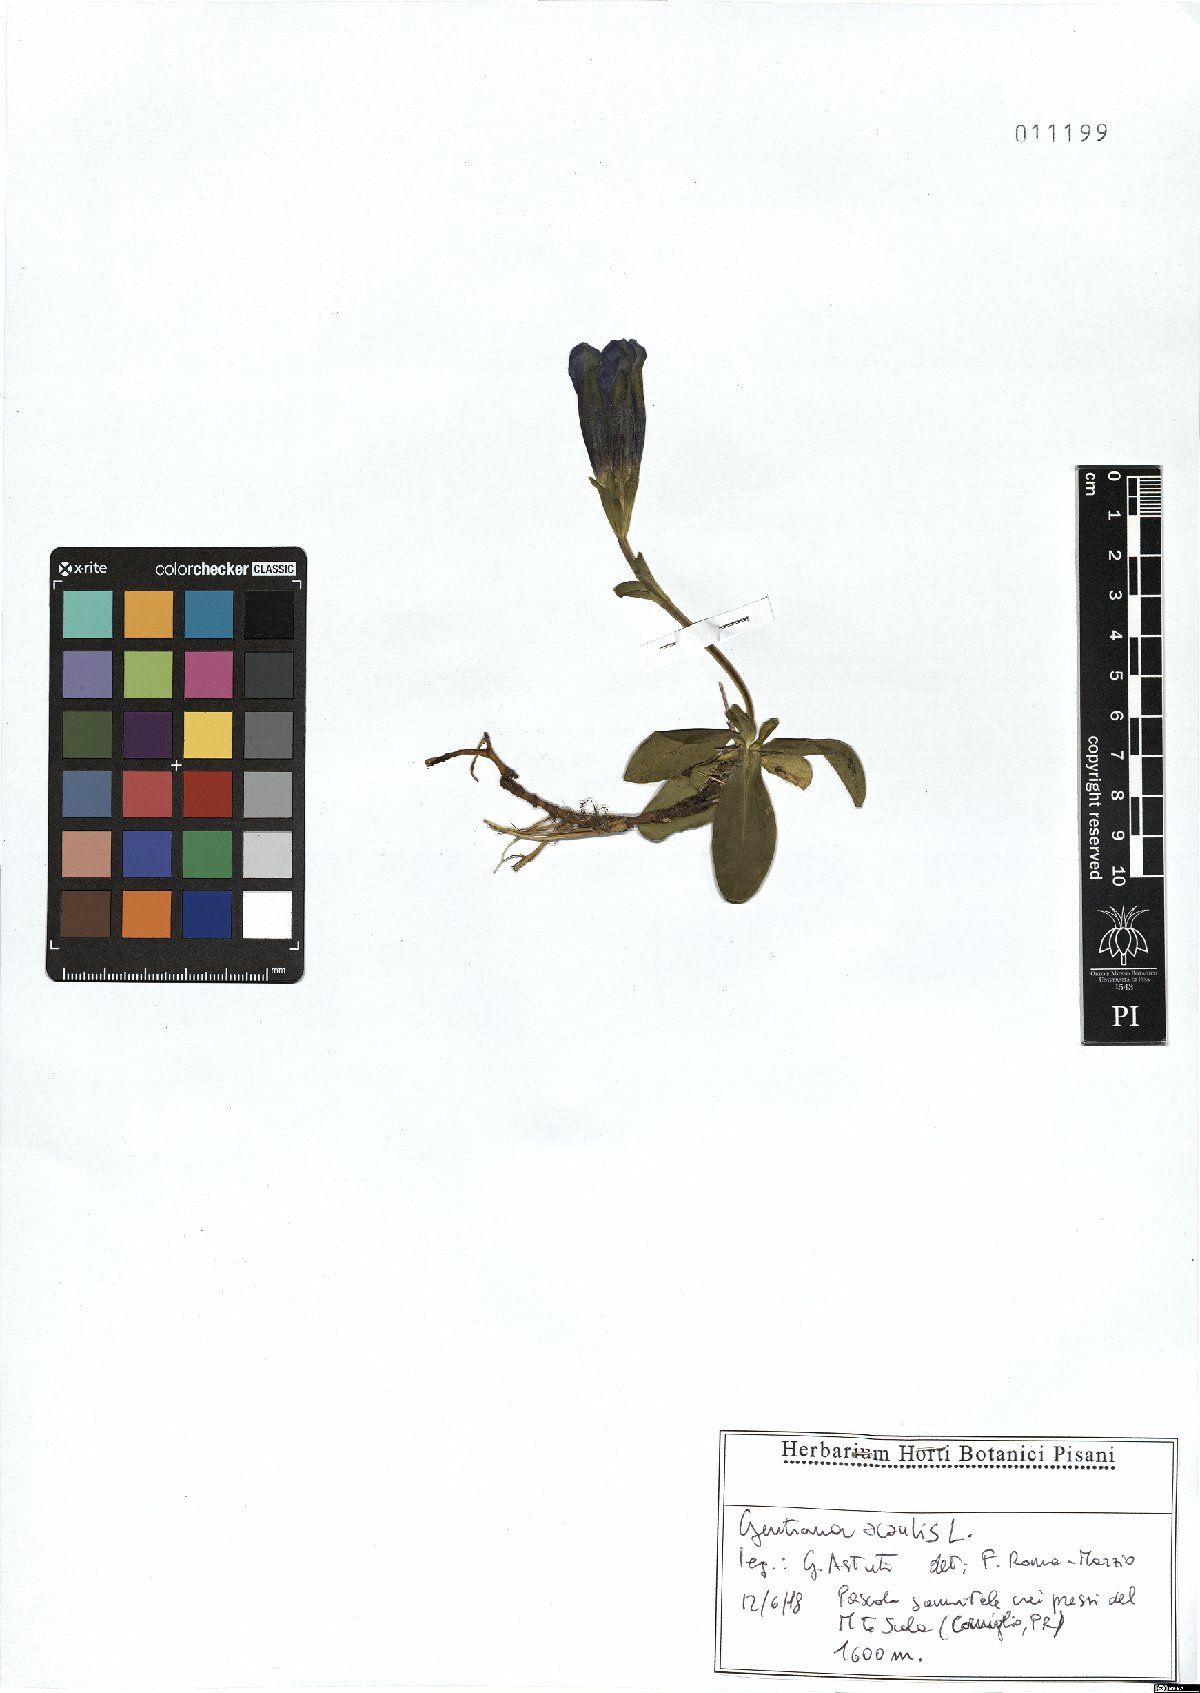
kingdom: Plantae
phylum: Tracheophyta
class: Magnoliopsida
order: Gentianales
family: Gentianaceae
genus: Gentiana
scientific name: Gentiana acaulis
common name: Trumpet gentian
